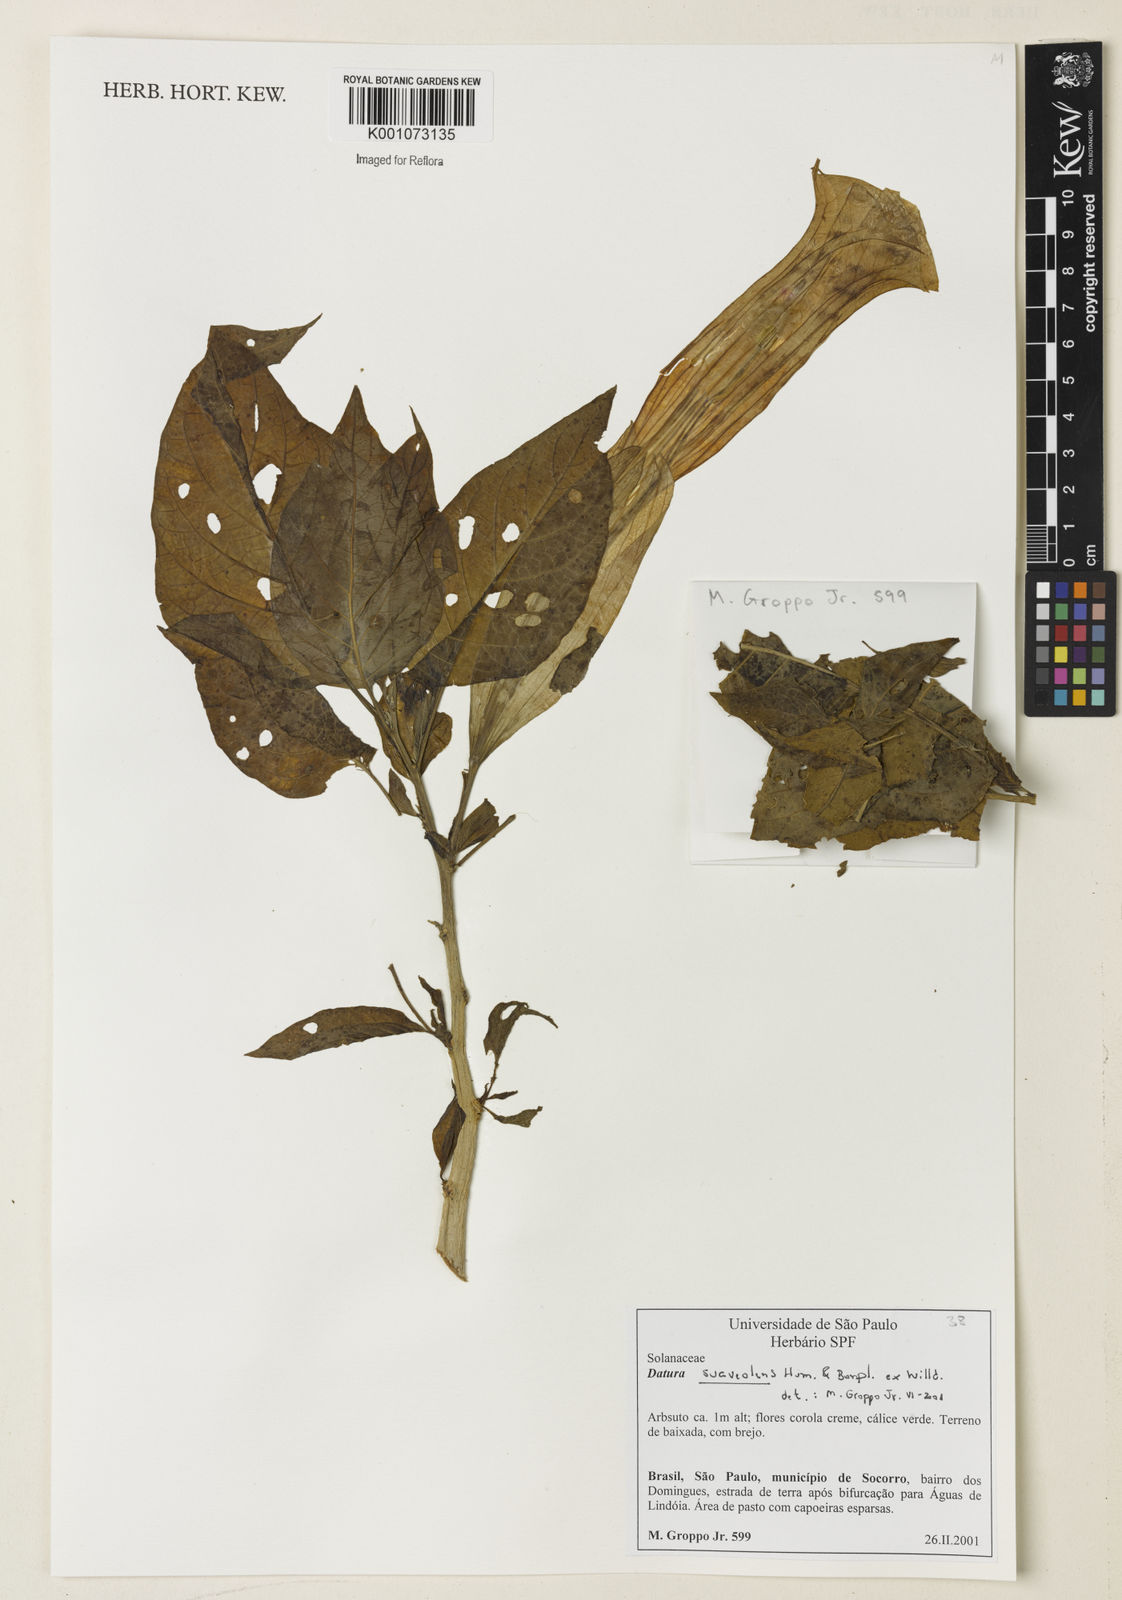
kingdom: Plantae
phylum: Tracheophyta
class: Magnoliopsida
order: Solanales
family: Solanaceae
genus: Brugmansia
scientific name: Brugmansia suaveolens
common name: Angel's tears
